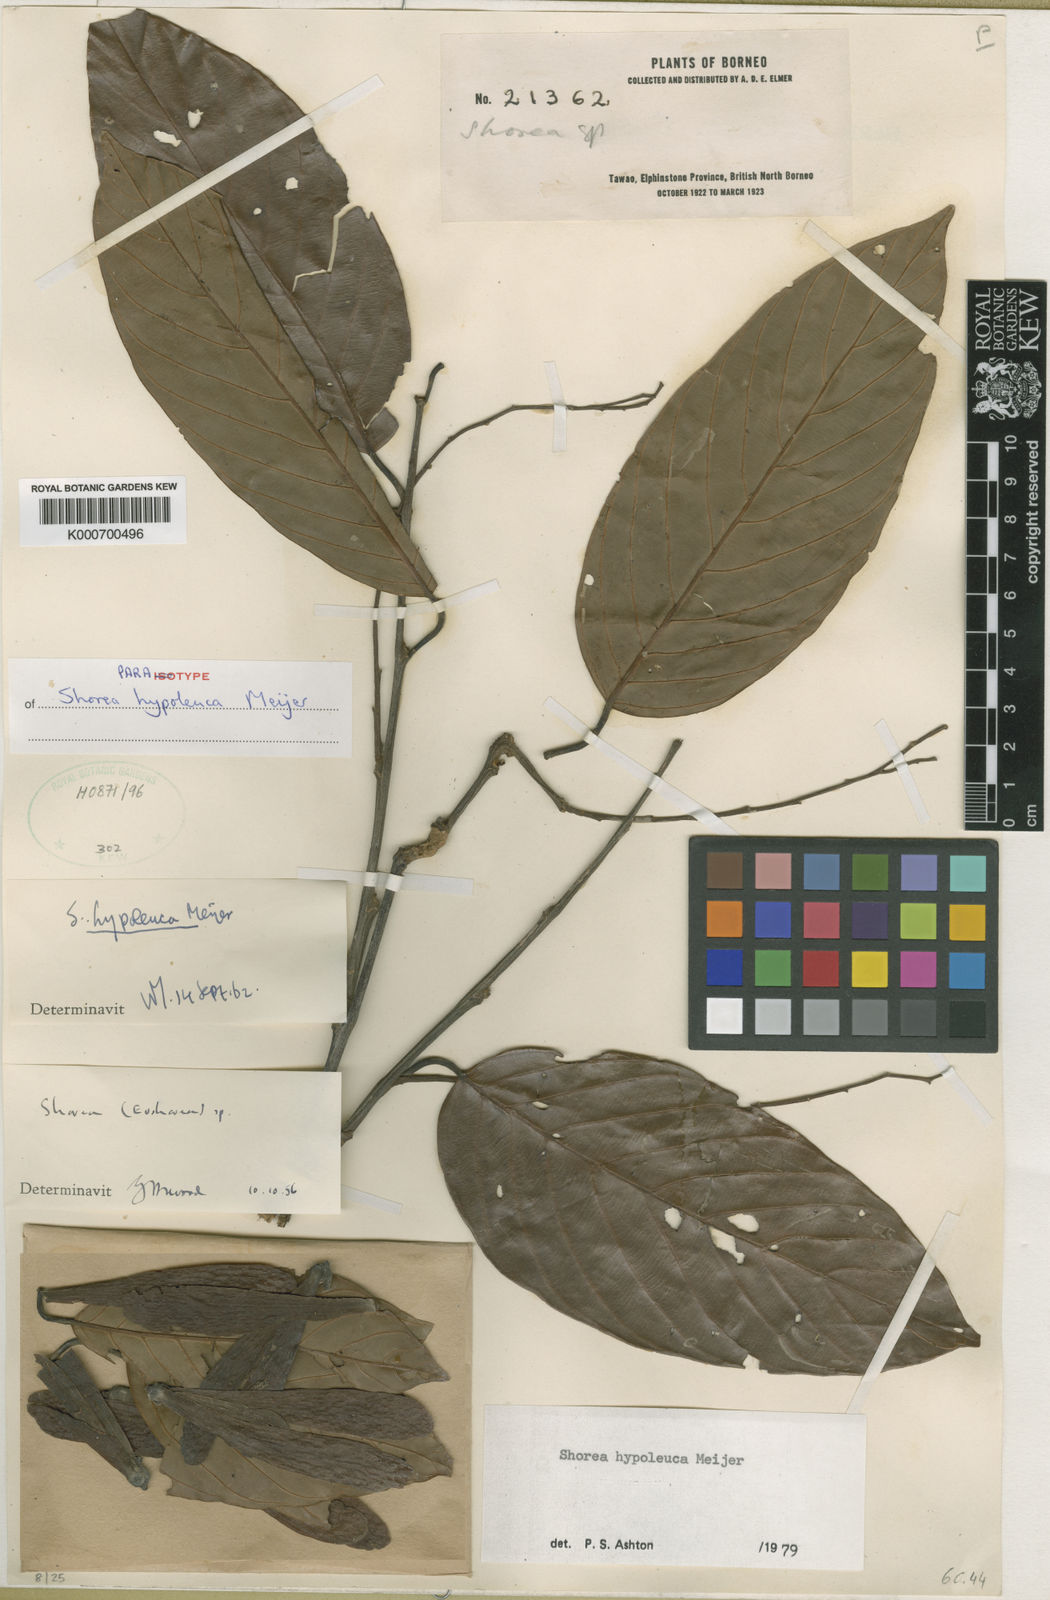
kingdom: Plantae
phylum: Tracheophyta
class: Magnoliopsida
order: Malvales
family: Dipterocarpaceae
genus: Shorea
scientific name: Shorea hypoleuca
